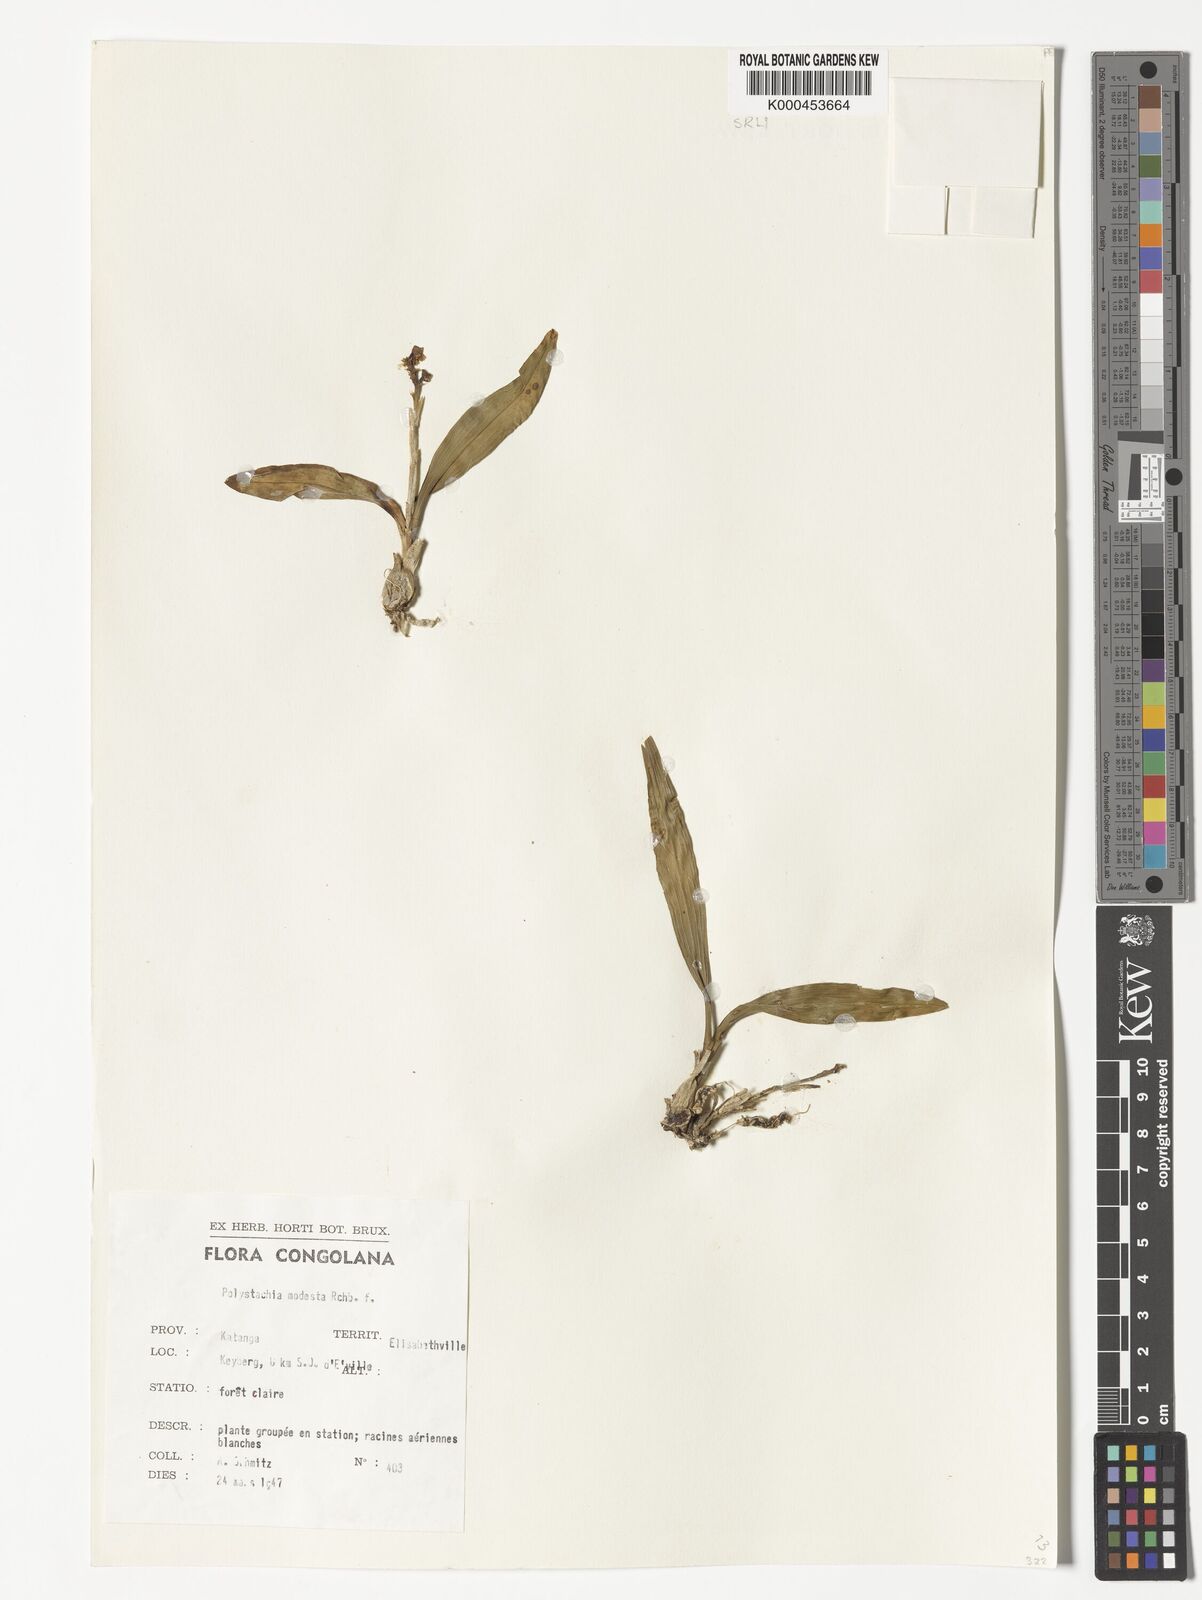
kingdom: Plantae
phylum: Tracheophyta
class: Liliopsida
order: Asparagales
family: Orchidaceae
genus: Polystachya
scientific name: Polystachya modesta
